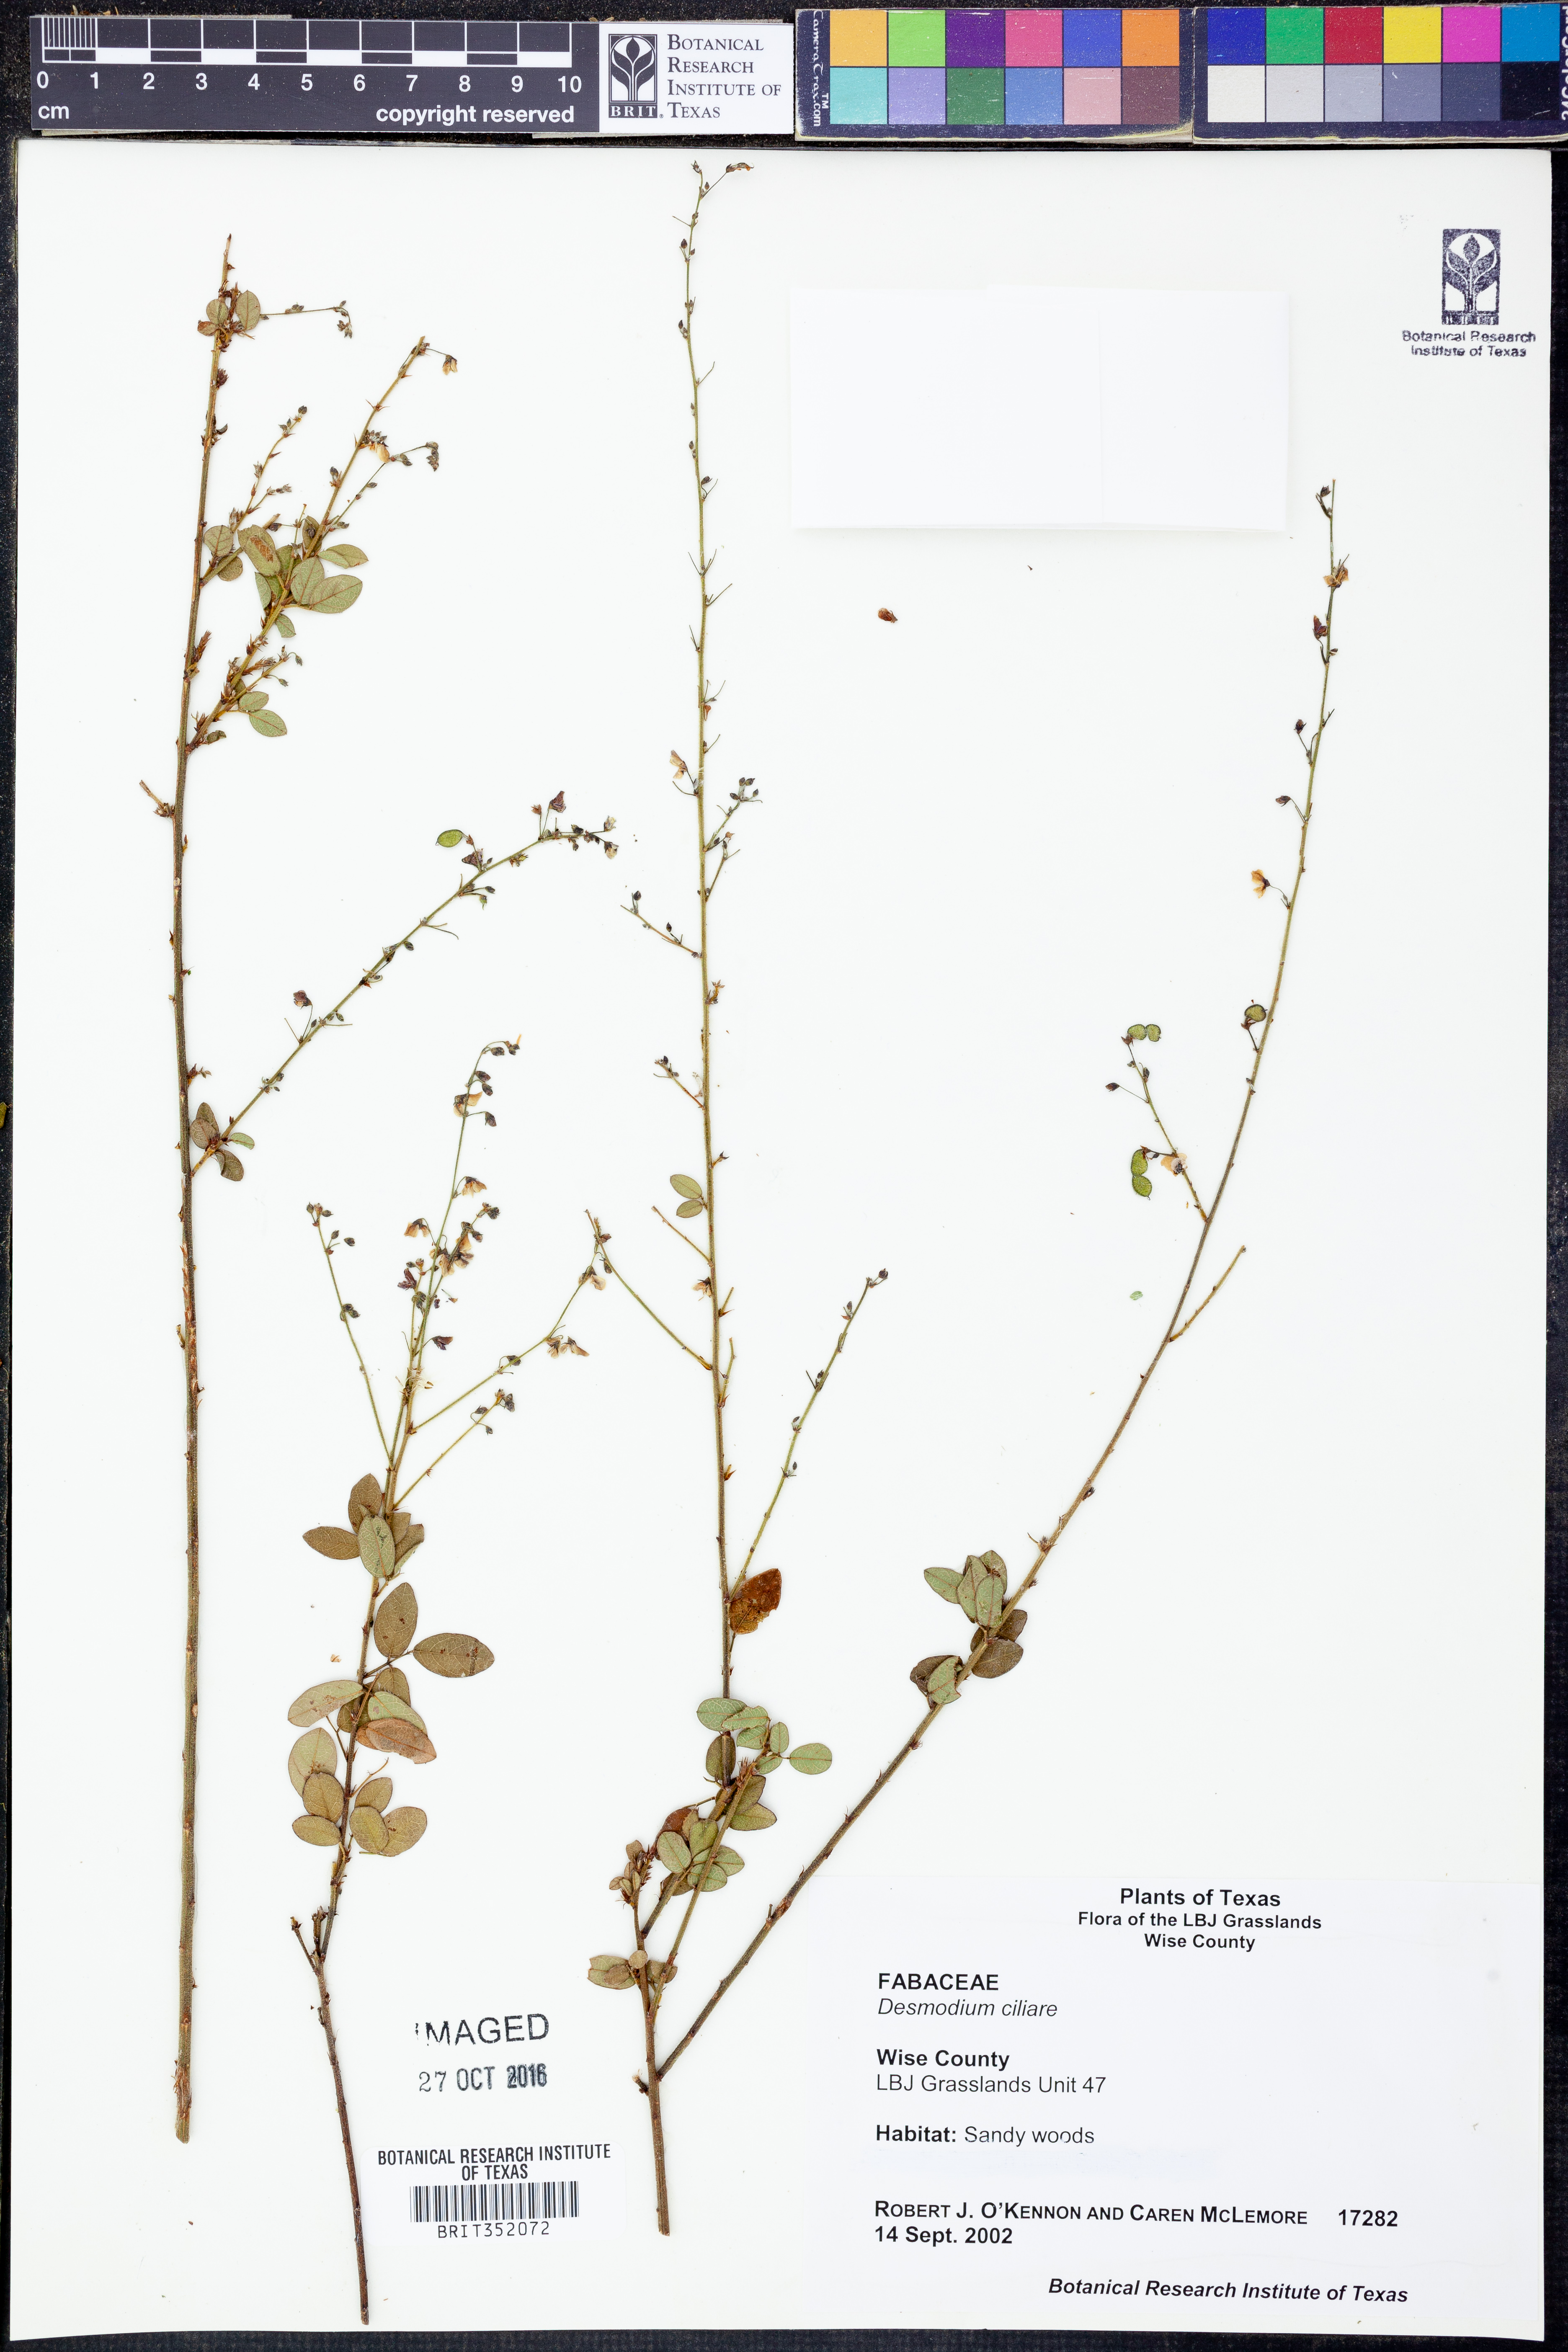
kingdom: Plantae
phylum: Tracheophyta
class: Magnoliopsida
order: Fabales
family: Fabaceae
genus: Desmodium
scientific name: Desmodium ciliare
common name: Hairy small-leaf ticktrefoil
